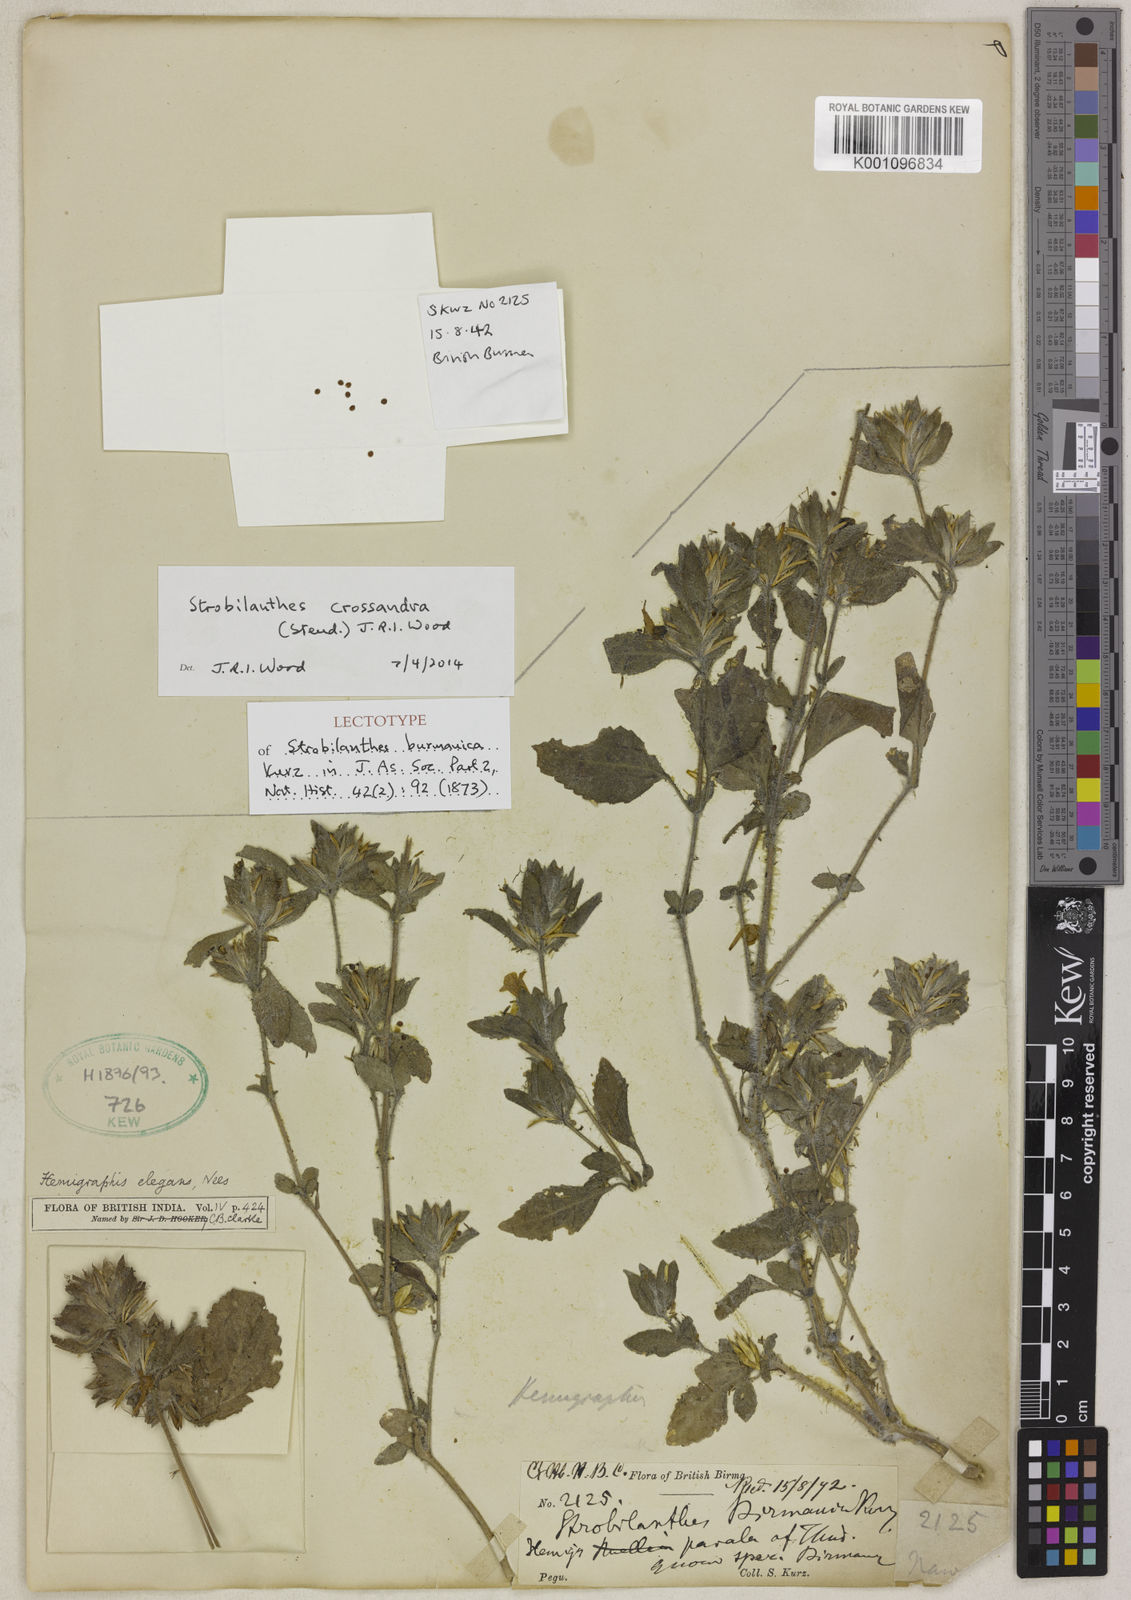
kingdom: Plantae
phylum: Tracheophyta
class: Magnoliopsida
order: Lamiales
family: Acanthaceae
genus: Strobilanthes
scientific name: Strobilanthes crossandra
